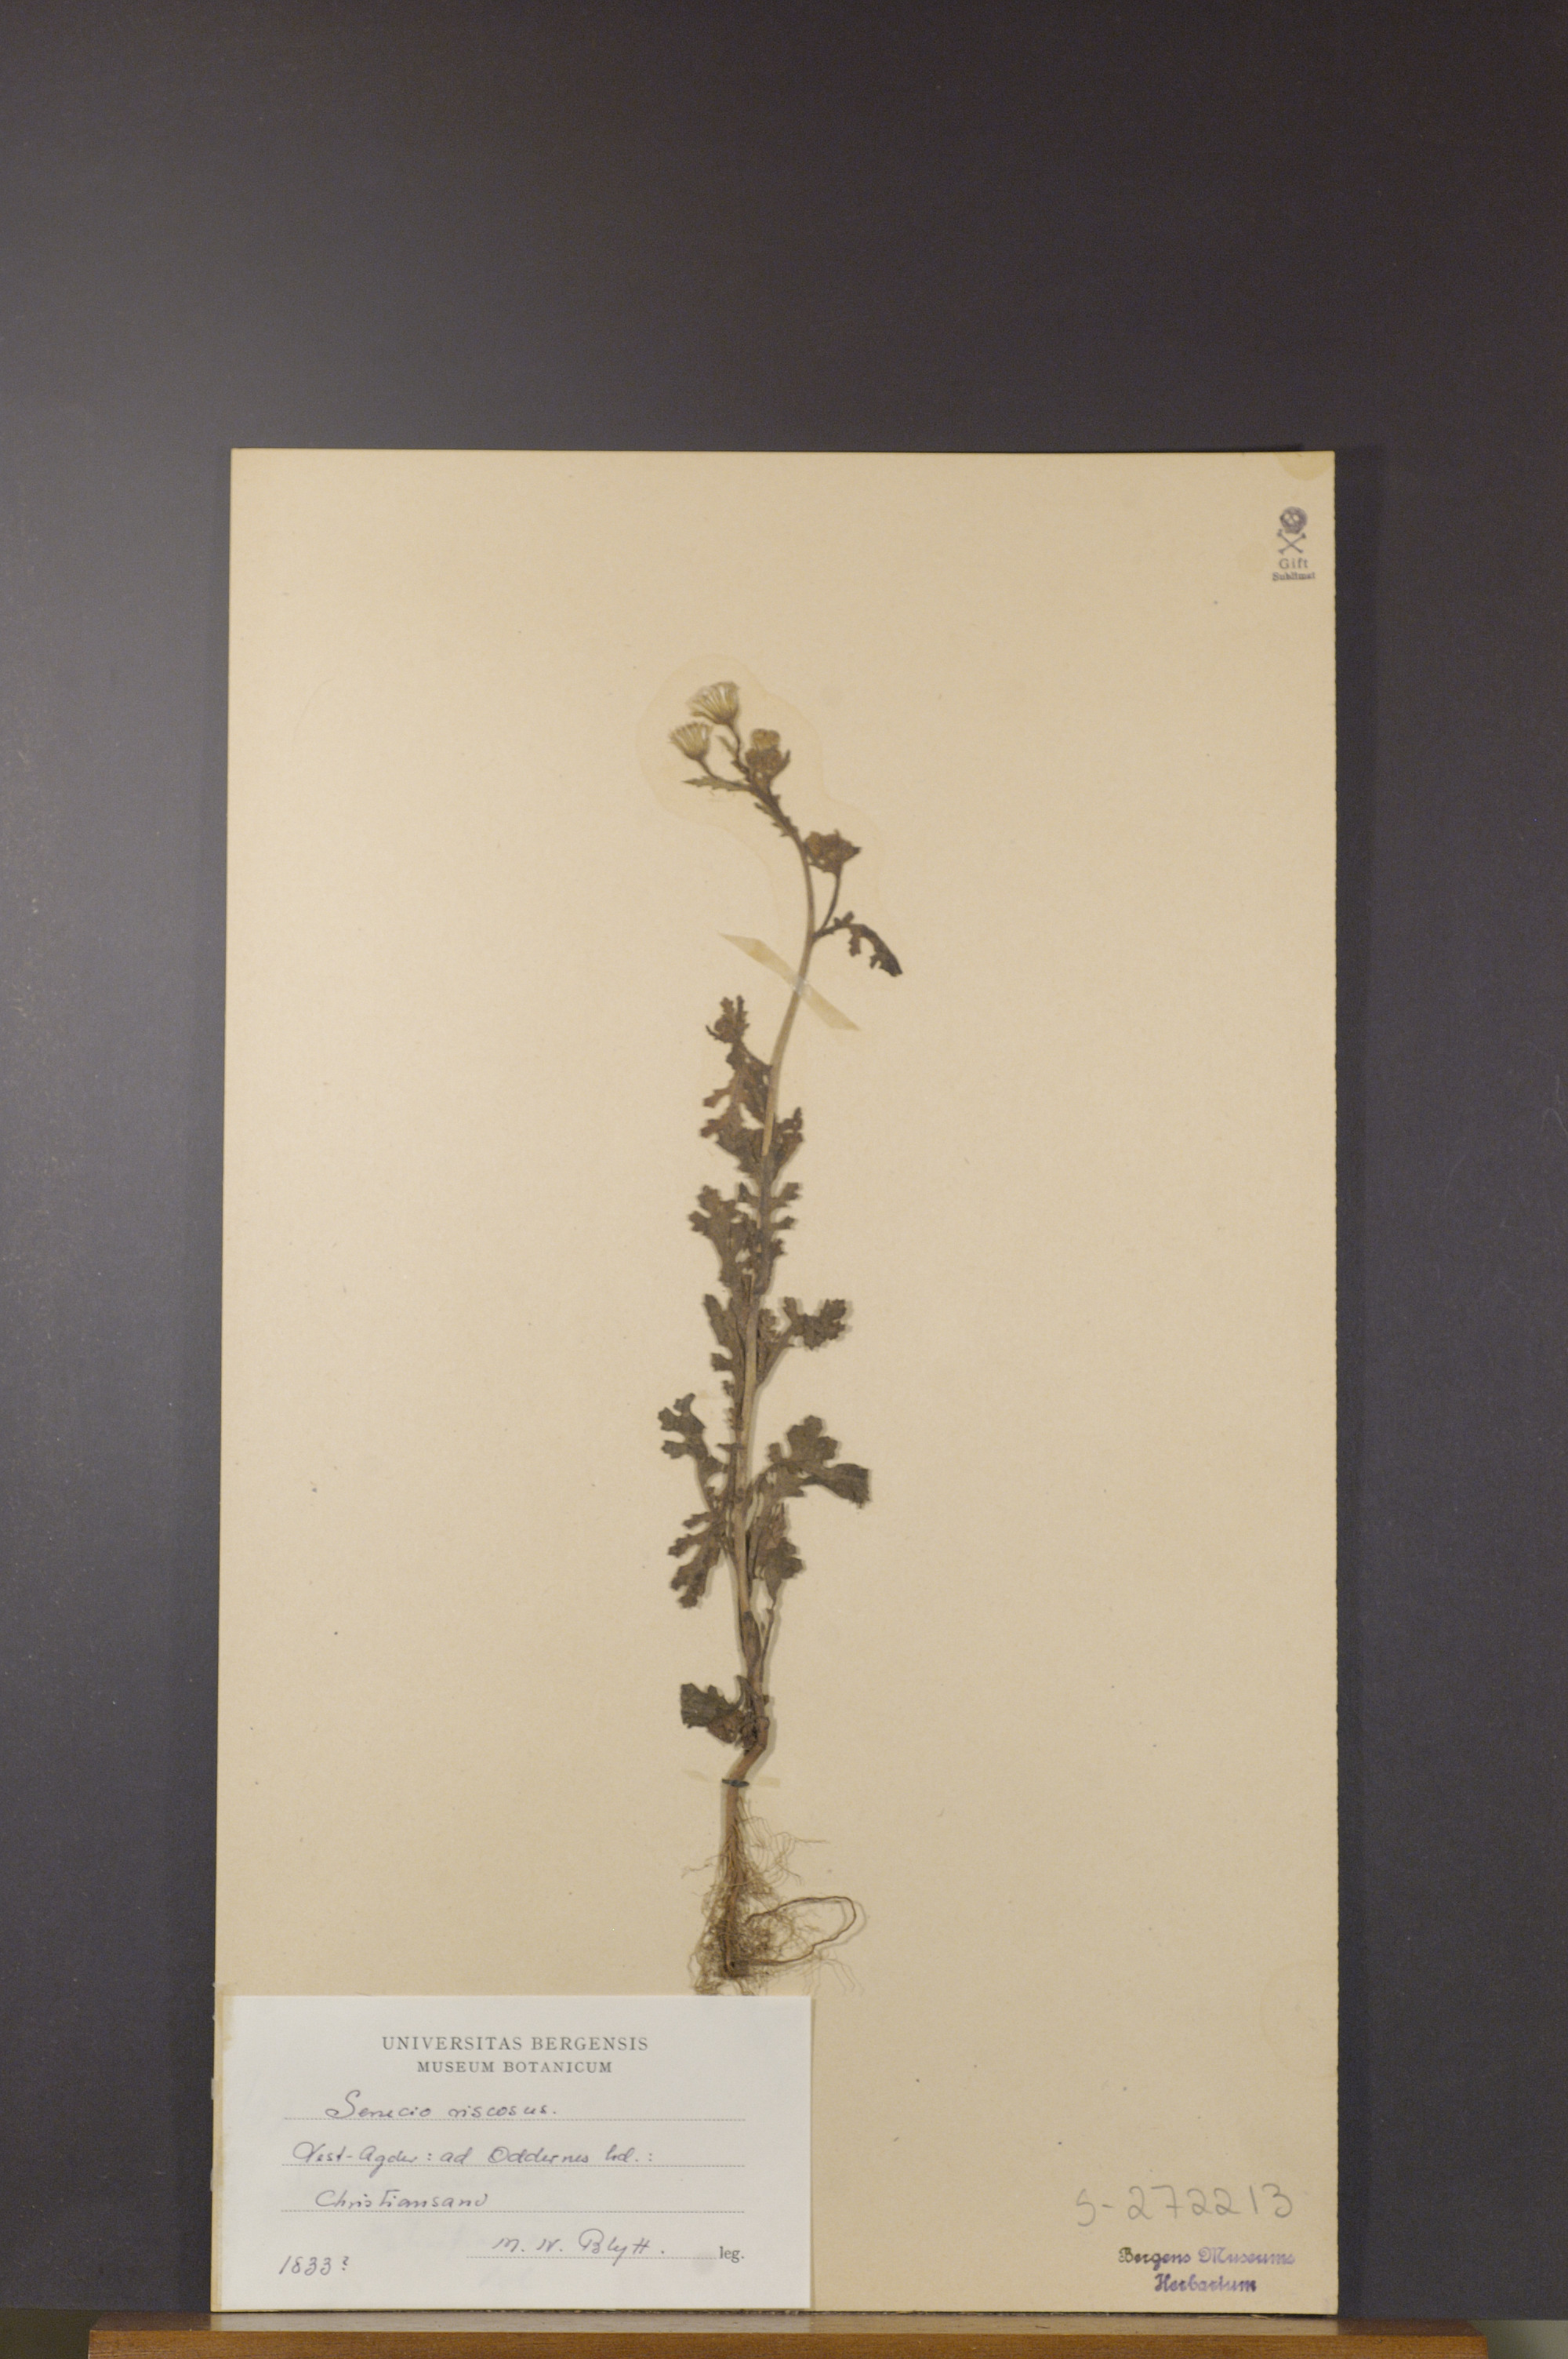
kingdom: Plantae
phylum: Tracheophyta
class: Magnoliopsida
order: Asterales
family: Asteraceae
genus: Senecio
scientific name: Senecio viscosus
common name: Sticky groundsel
